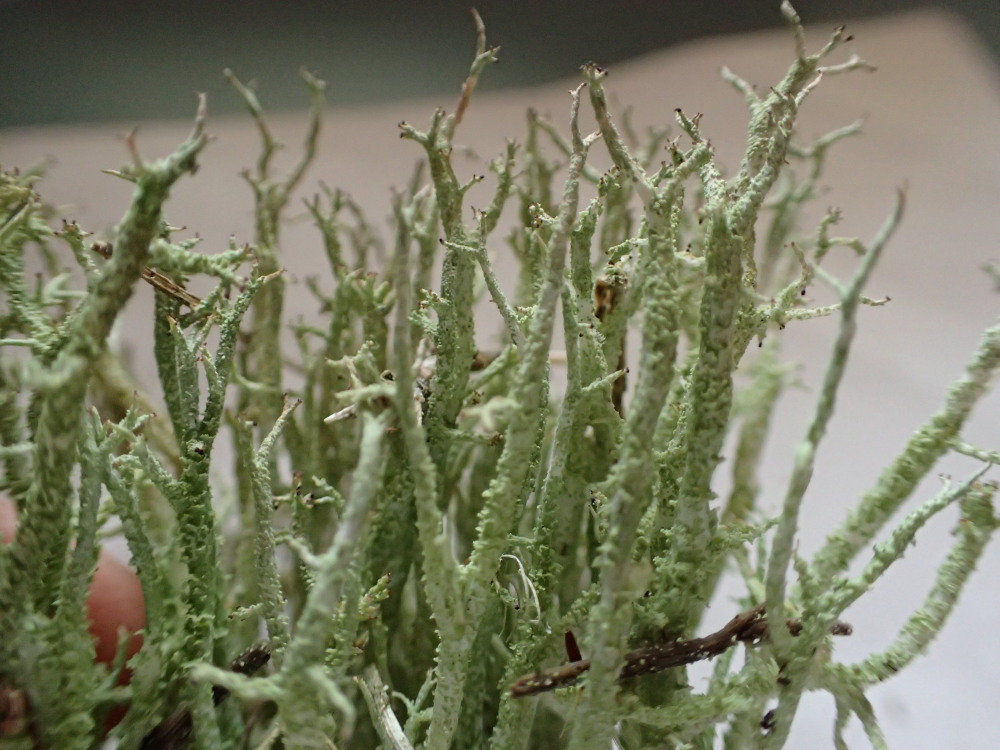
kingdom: Fungi
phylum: Ascomycota
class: Lecanoromycetes
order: Lecanorales
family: Cladoniaceae
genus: Cladonia
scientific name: Cladonia scabriuscula
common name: ru bægerlav
